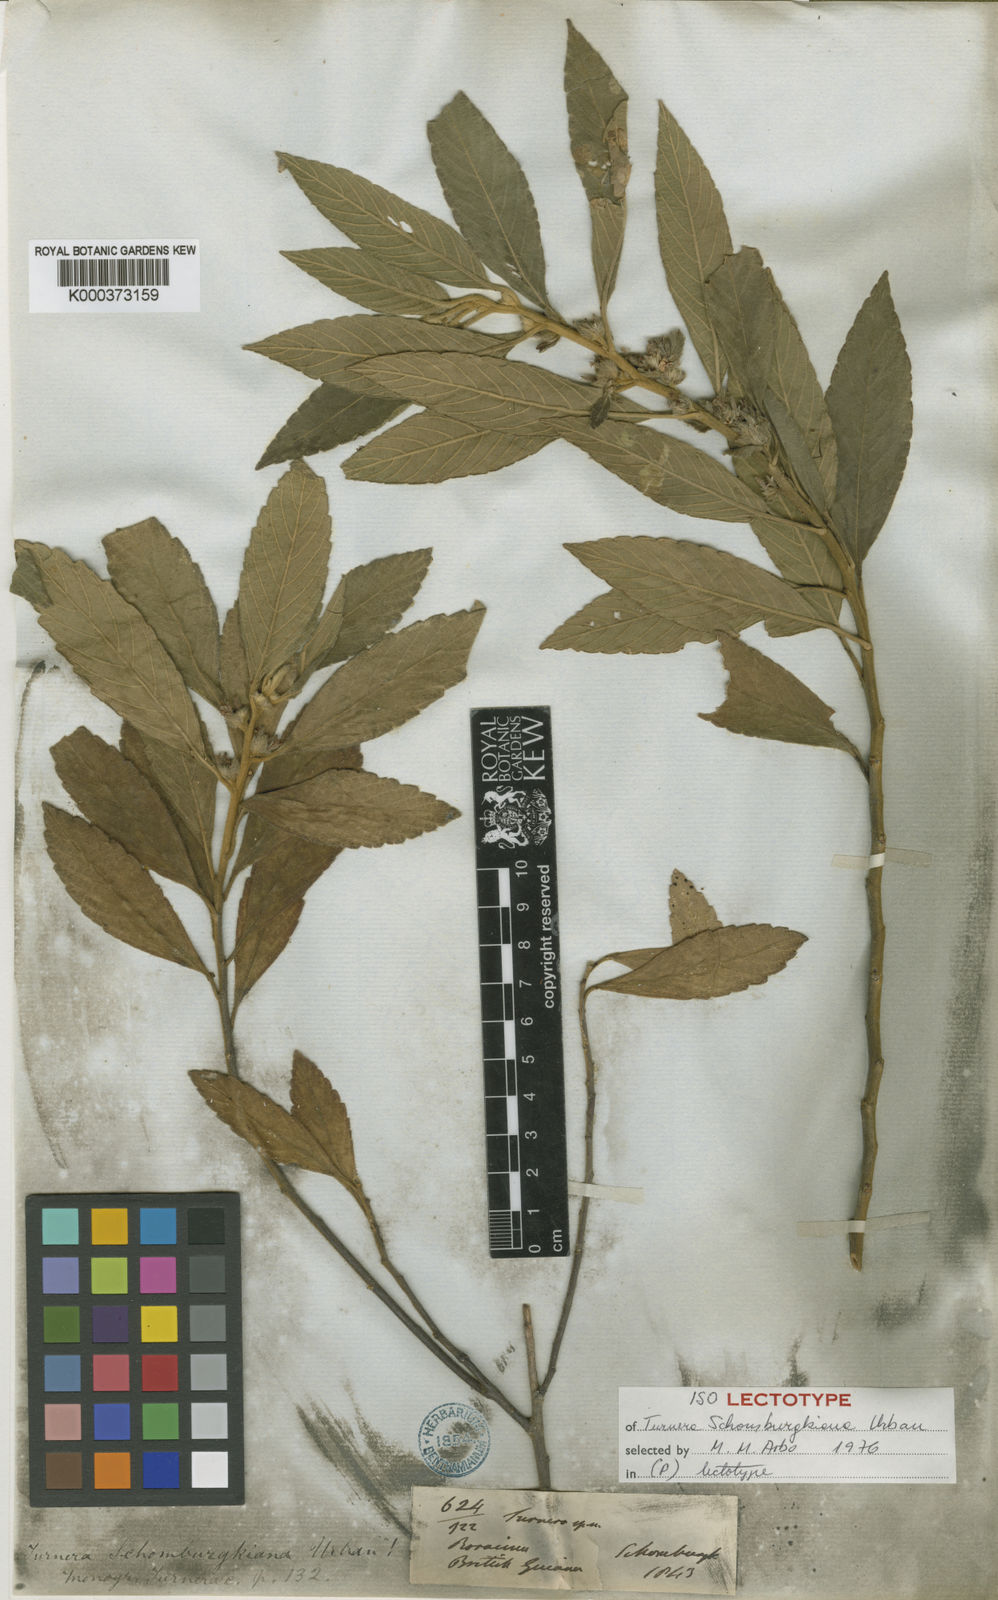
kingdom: Plantae
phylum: Tracheophyta
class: Magnoliopsida
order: Malpighiales
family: Turneraceae
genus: Oxossia
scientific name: Oxossia schomburgkiana
